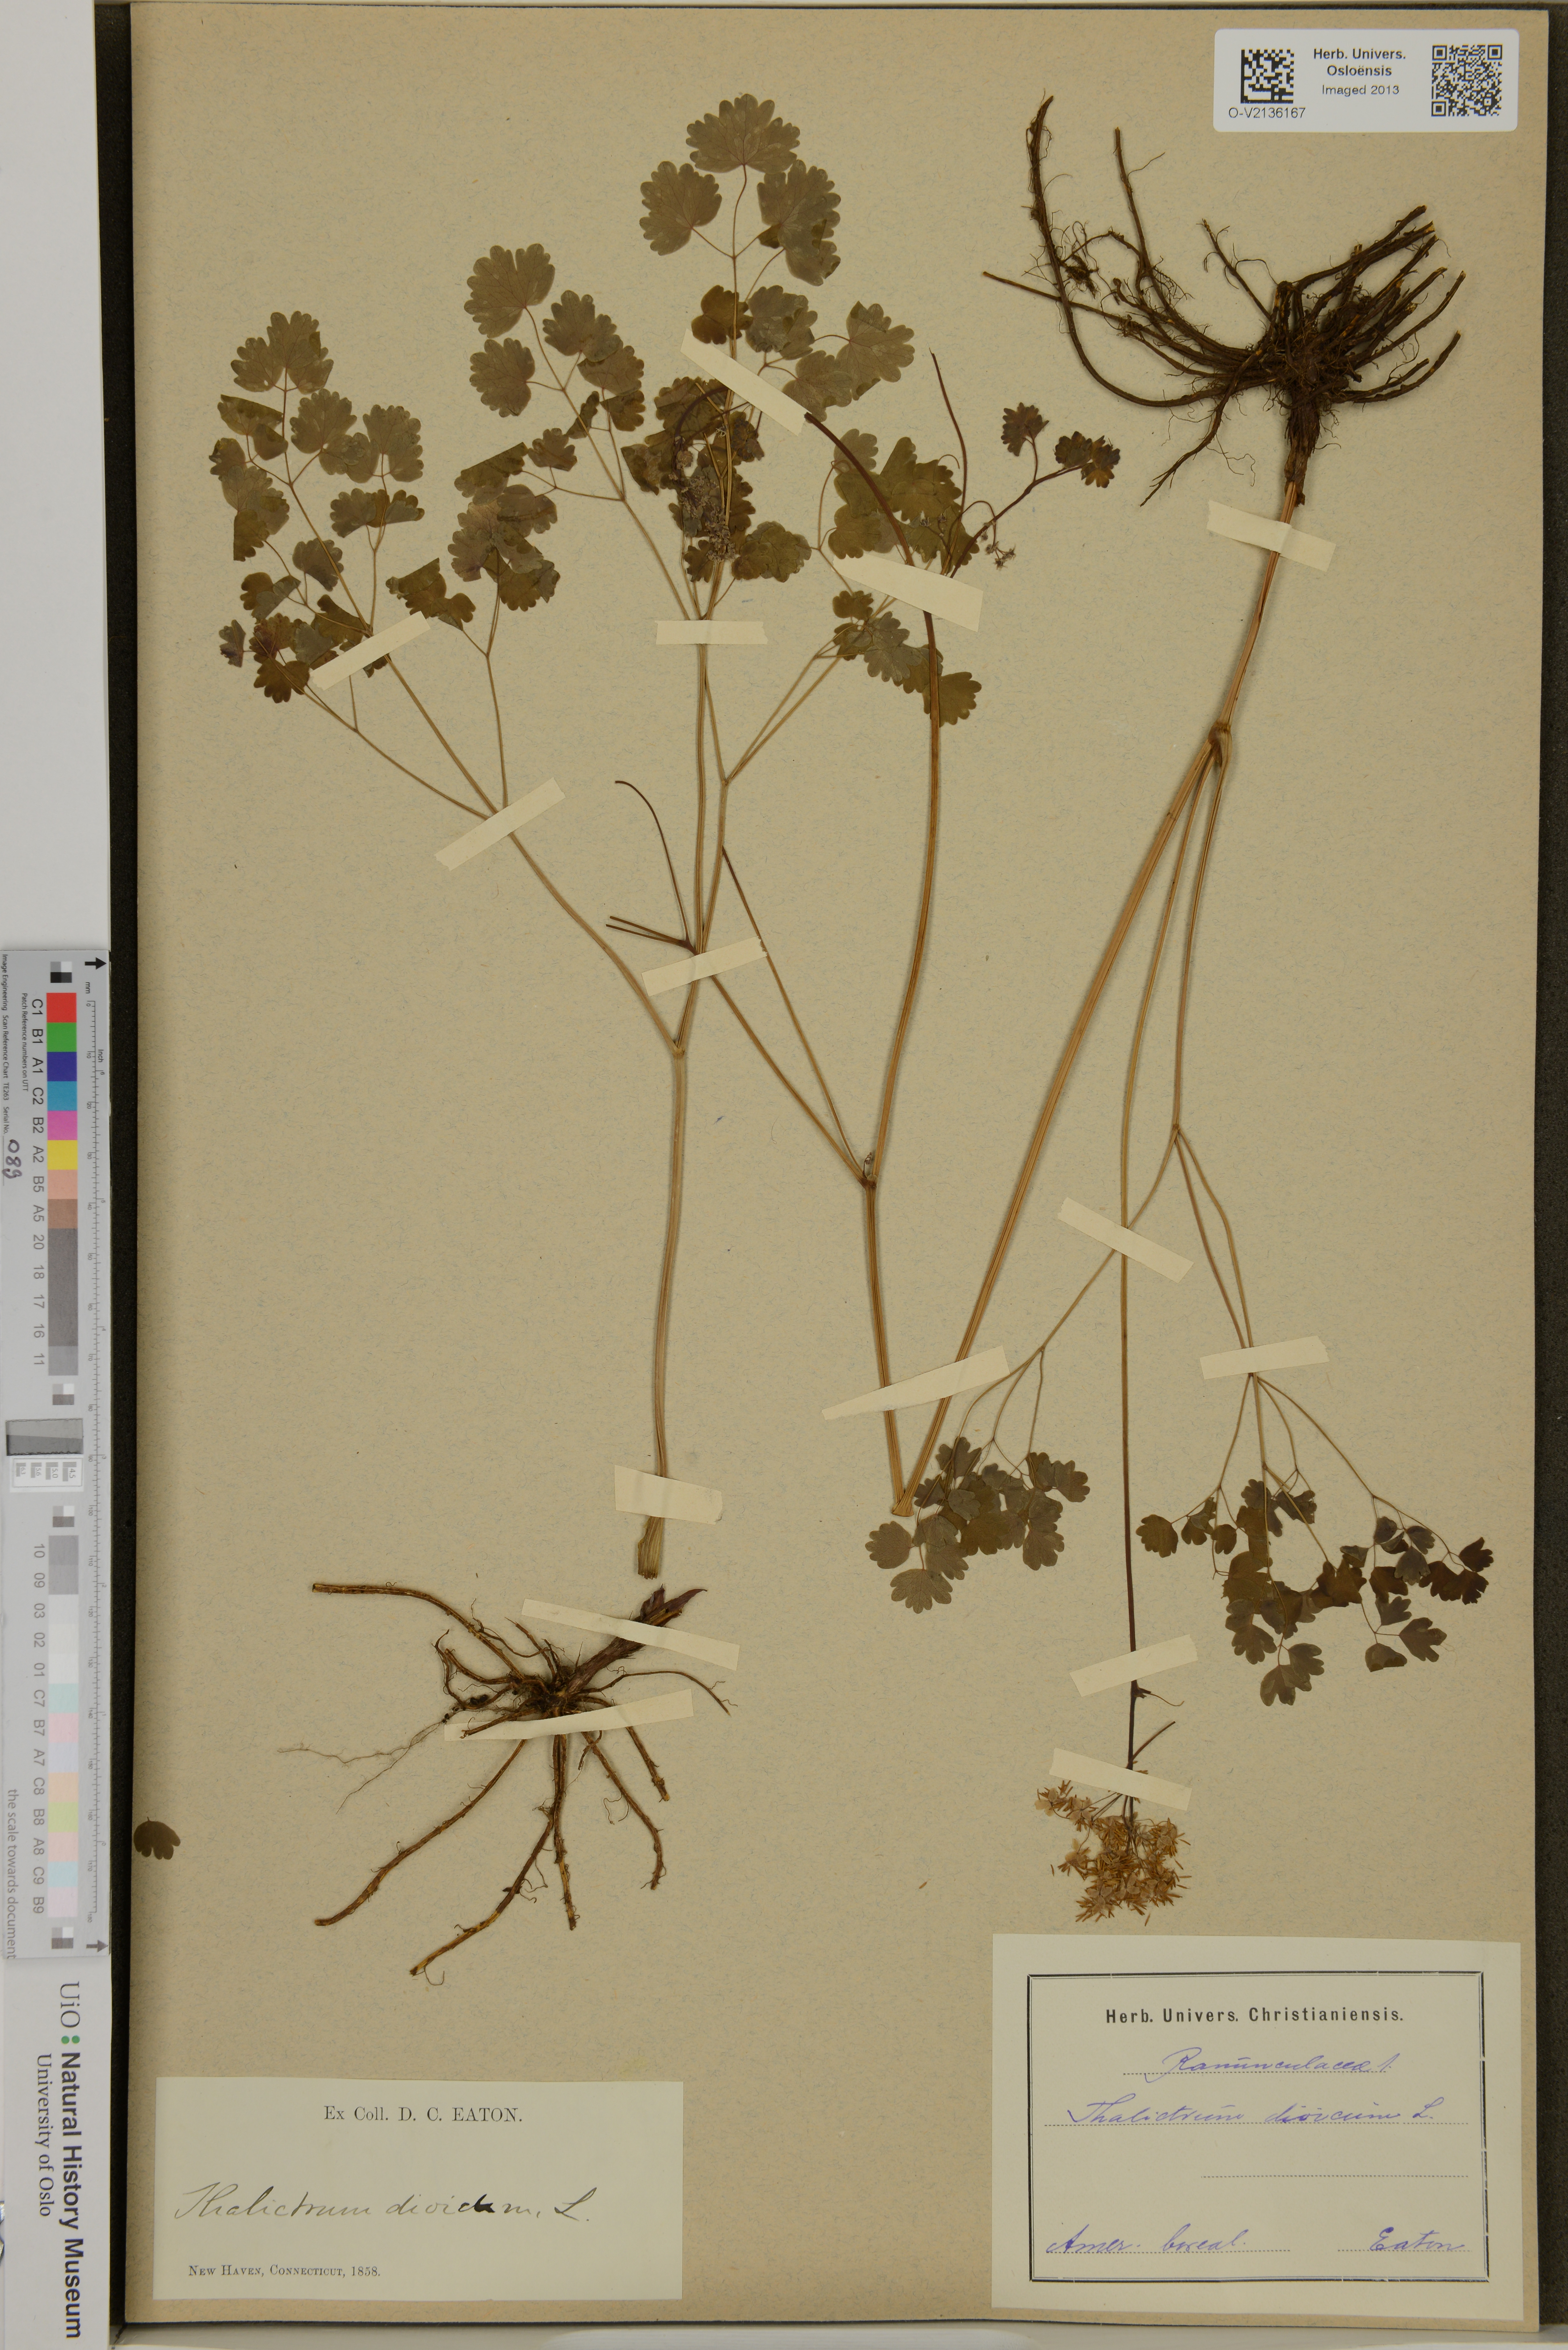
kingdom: Plantae
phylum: Tracheophyta
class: Magnoliopsida
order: Ranunculales
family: Ranunculaceae
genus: Thalictrum
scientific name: Thalictrum dioicum
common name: Early meadow-rue
